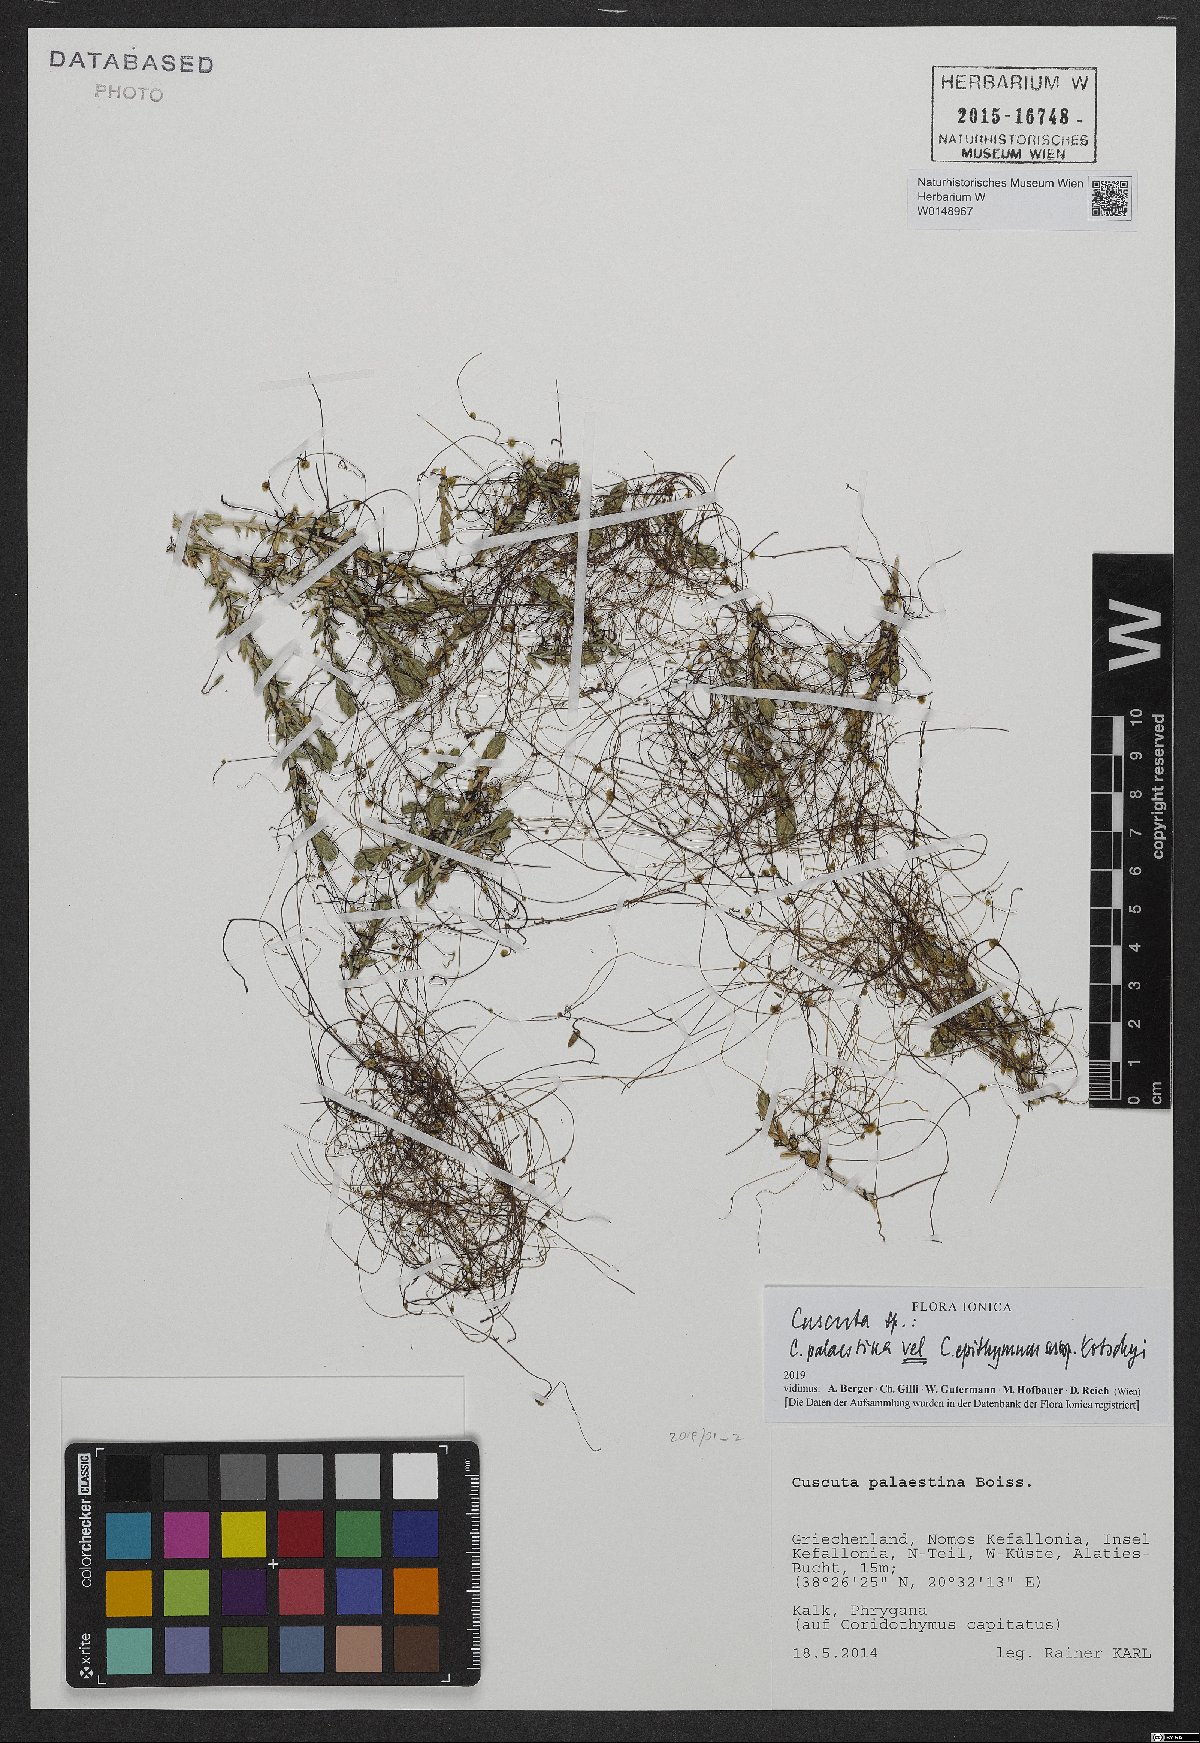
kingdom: Plantae
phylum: Tracheophyta
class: Magnoliopsida
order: Solanales
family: Convolvulaceae
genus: Cuscuta
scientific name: Cuscuta
